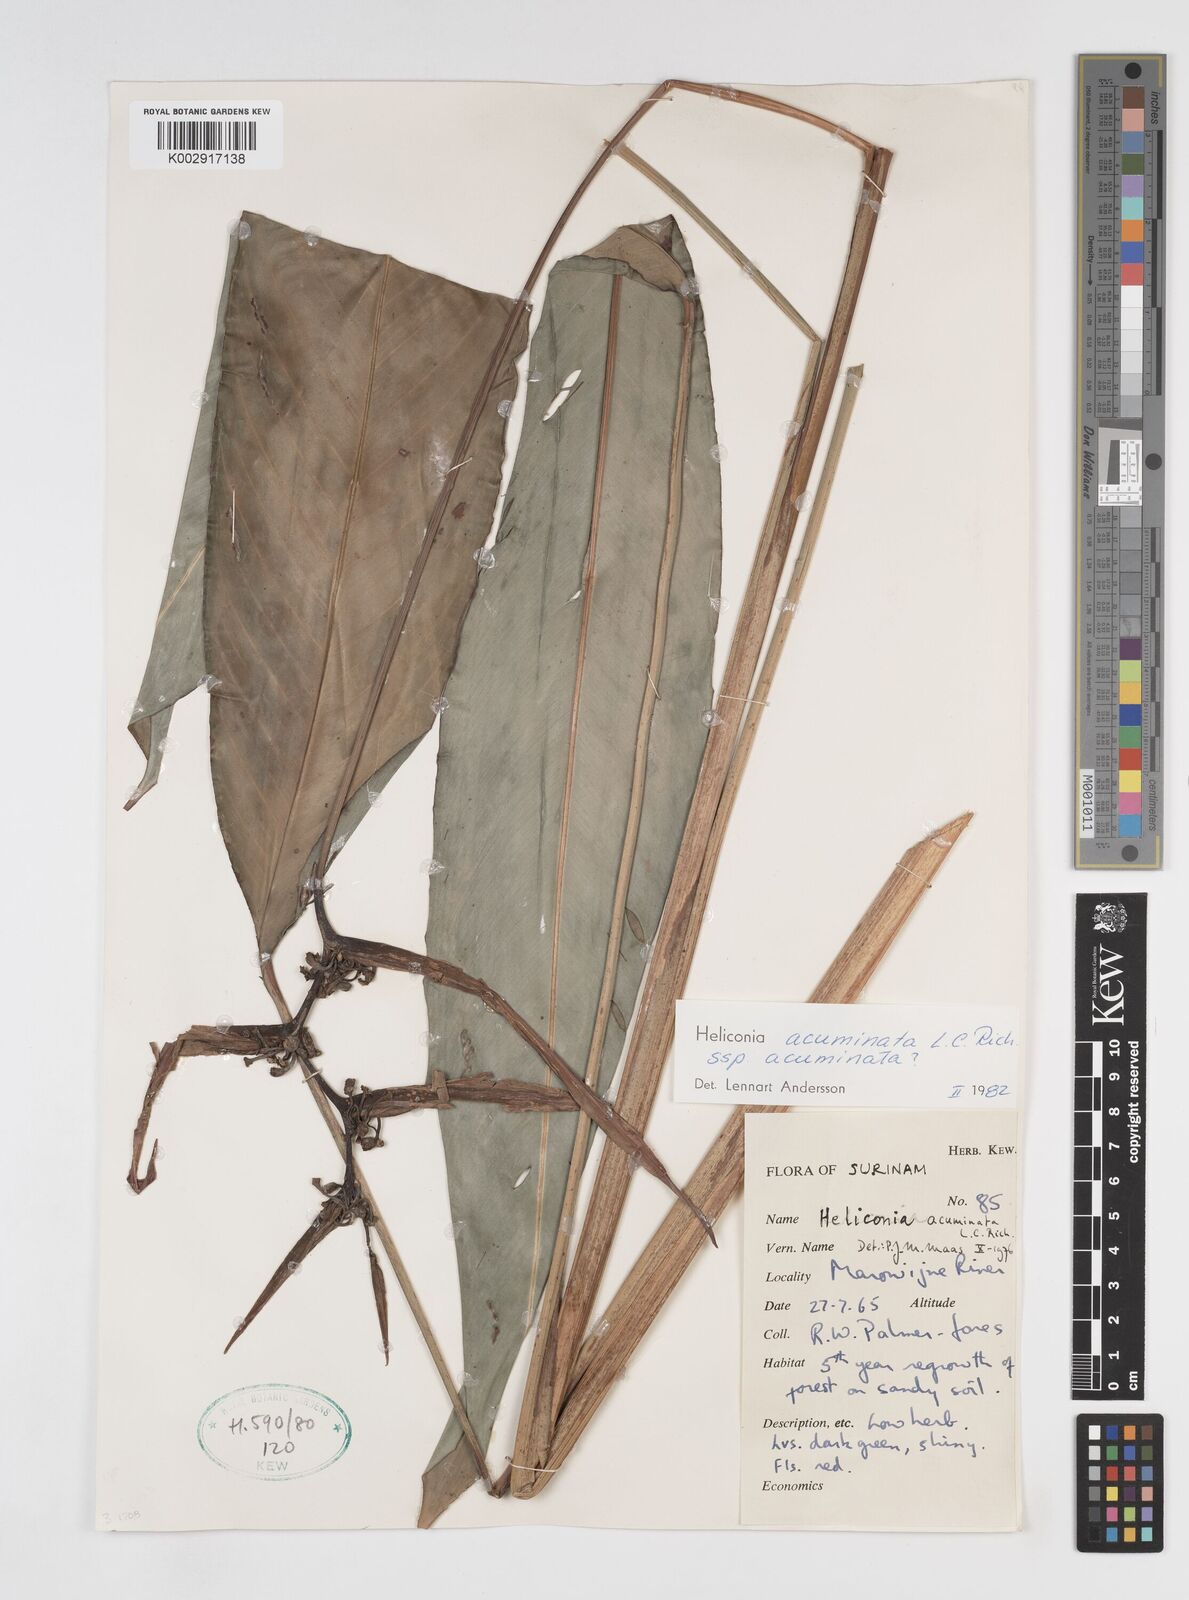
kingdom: Plantae
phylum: Tracheophyta
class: Liliopsida
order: Zingiberales
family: Heliconiaceae
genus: Heliconia
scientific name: Heliconia acuminata
